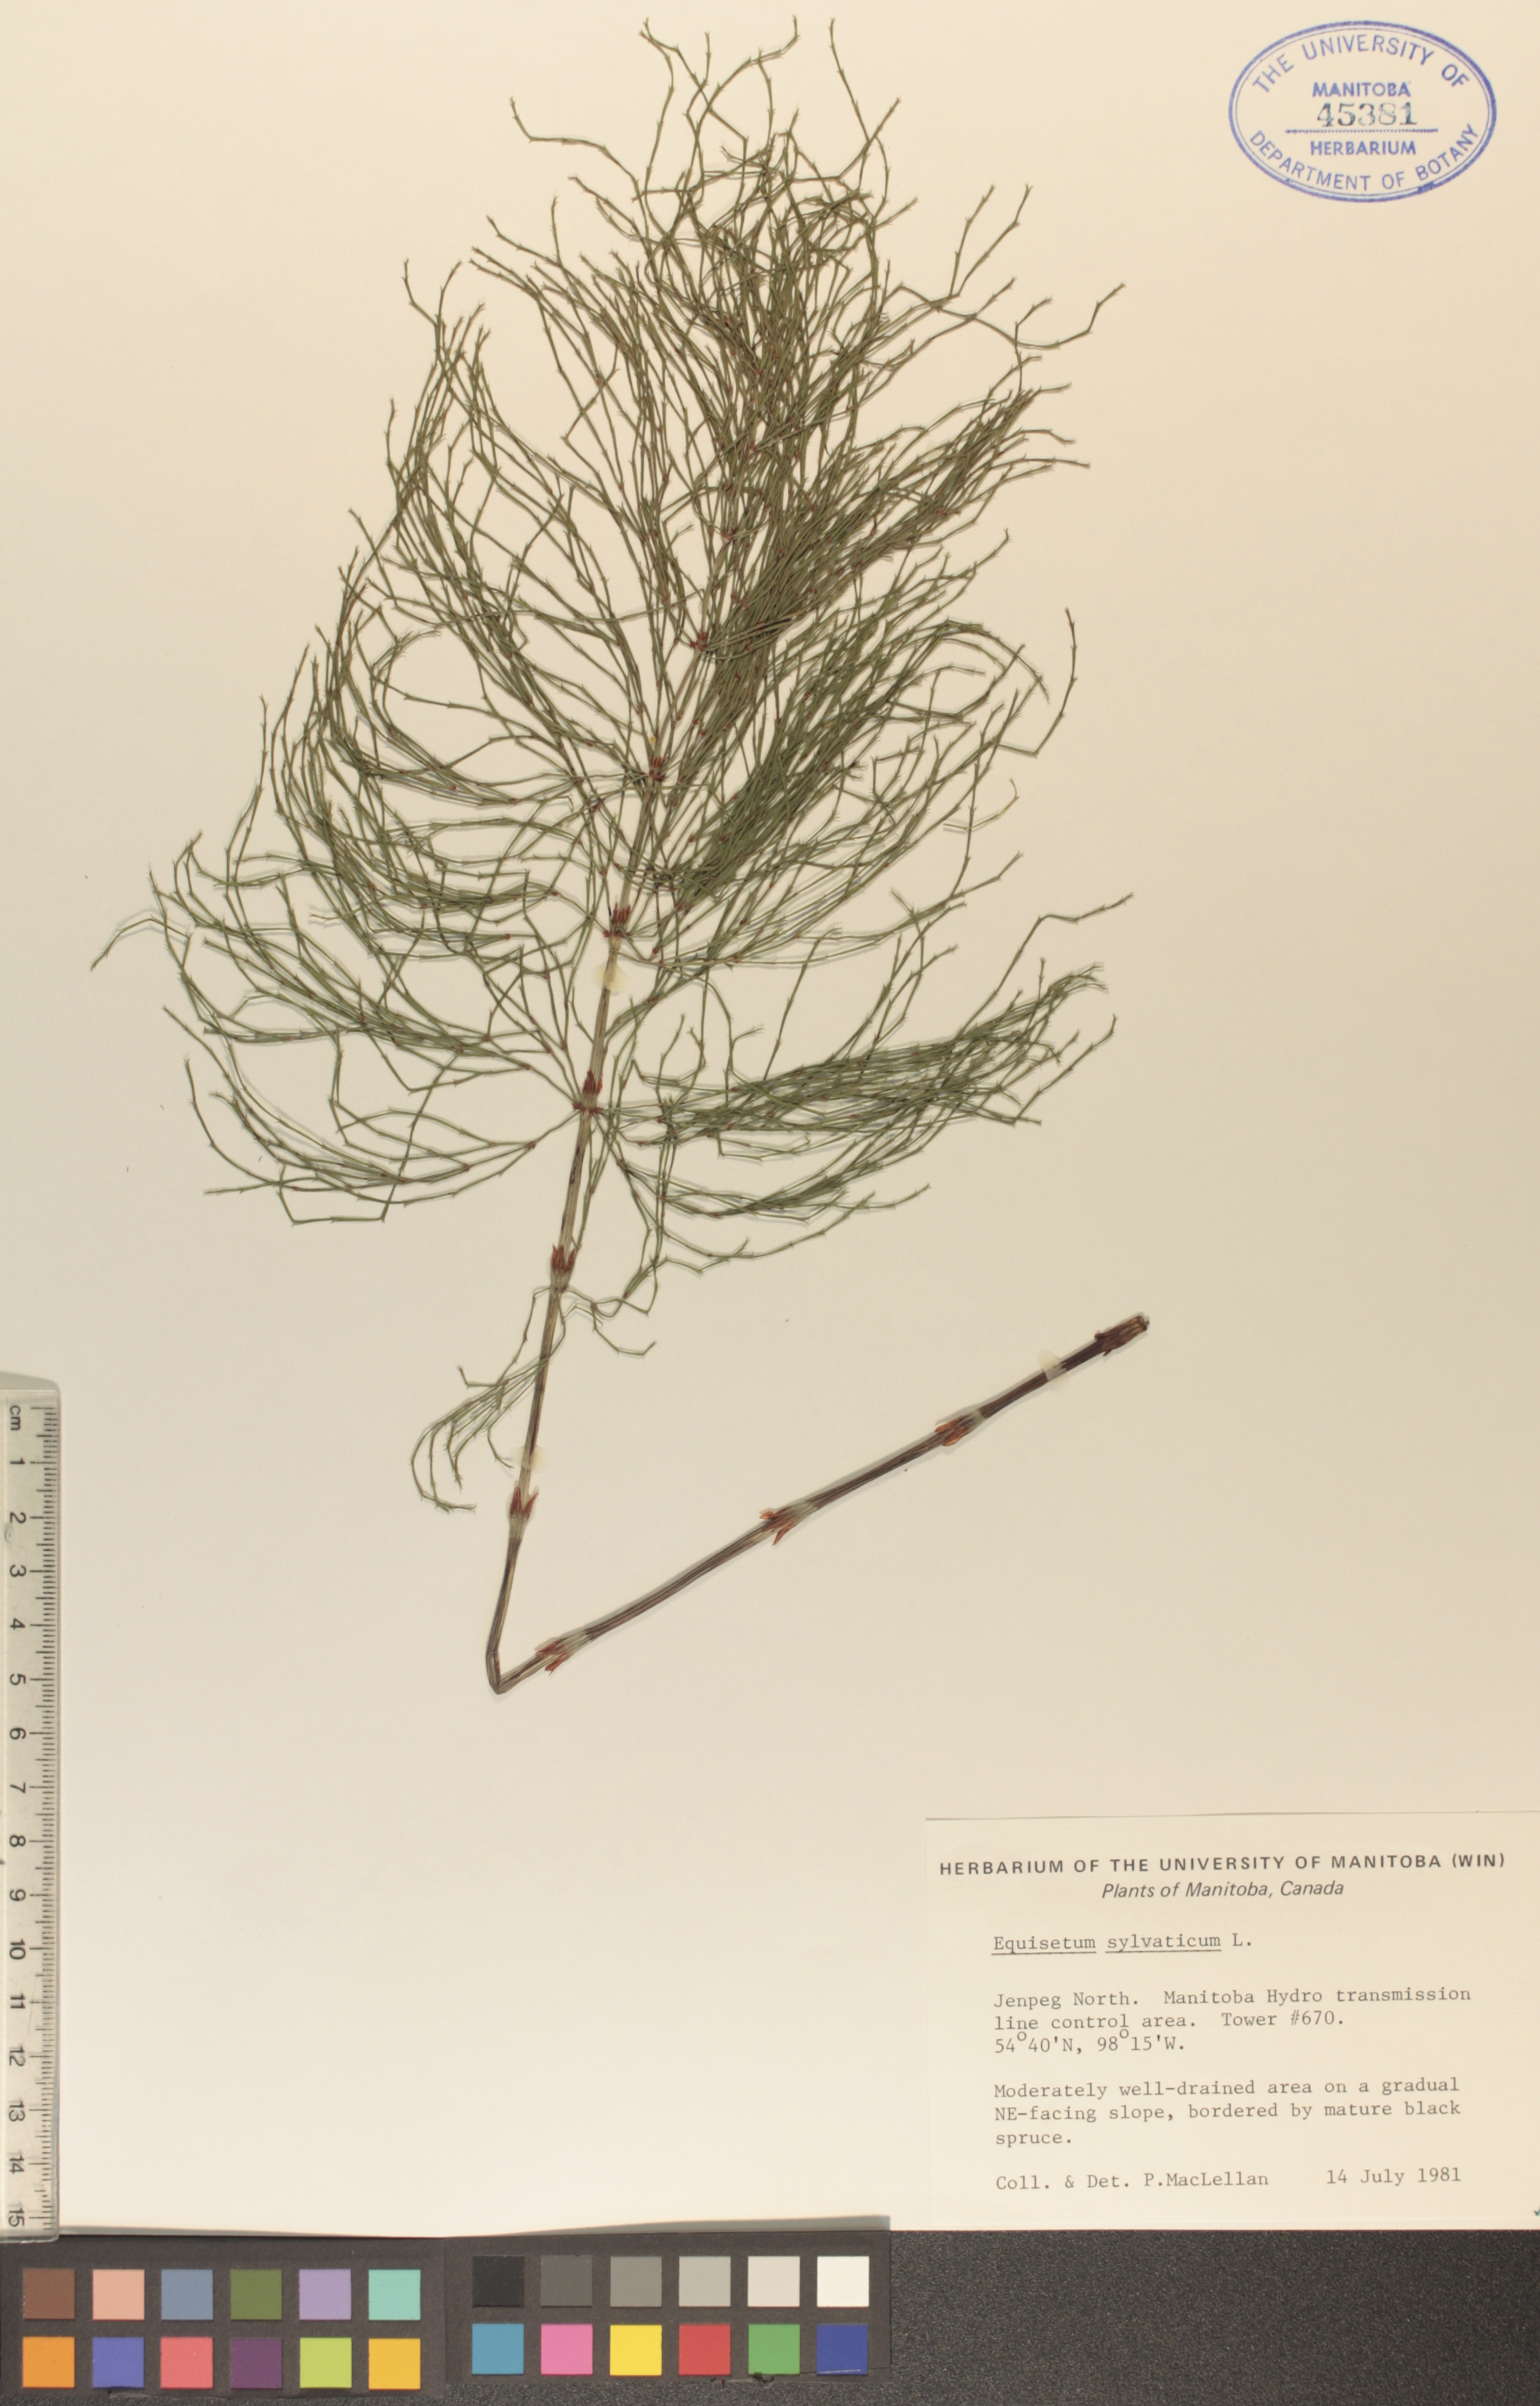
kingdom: Plantae
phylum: Tracheophyta
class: Polypodiopsida
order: Equisetales
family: Equisetaceae
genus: Equisetum
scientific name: Equisetum sylvaticum
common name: Wood horsetail
